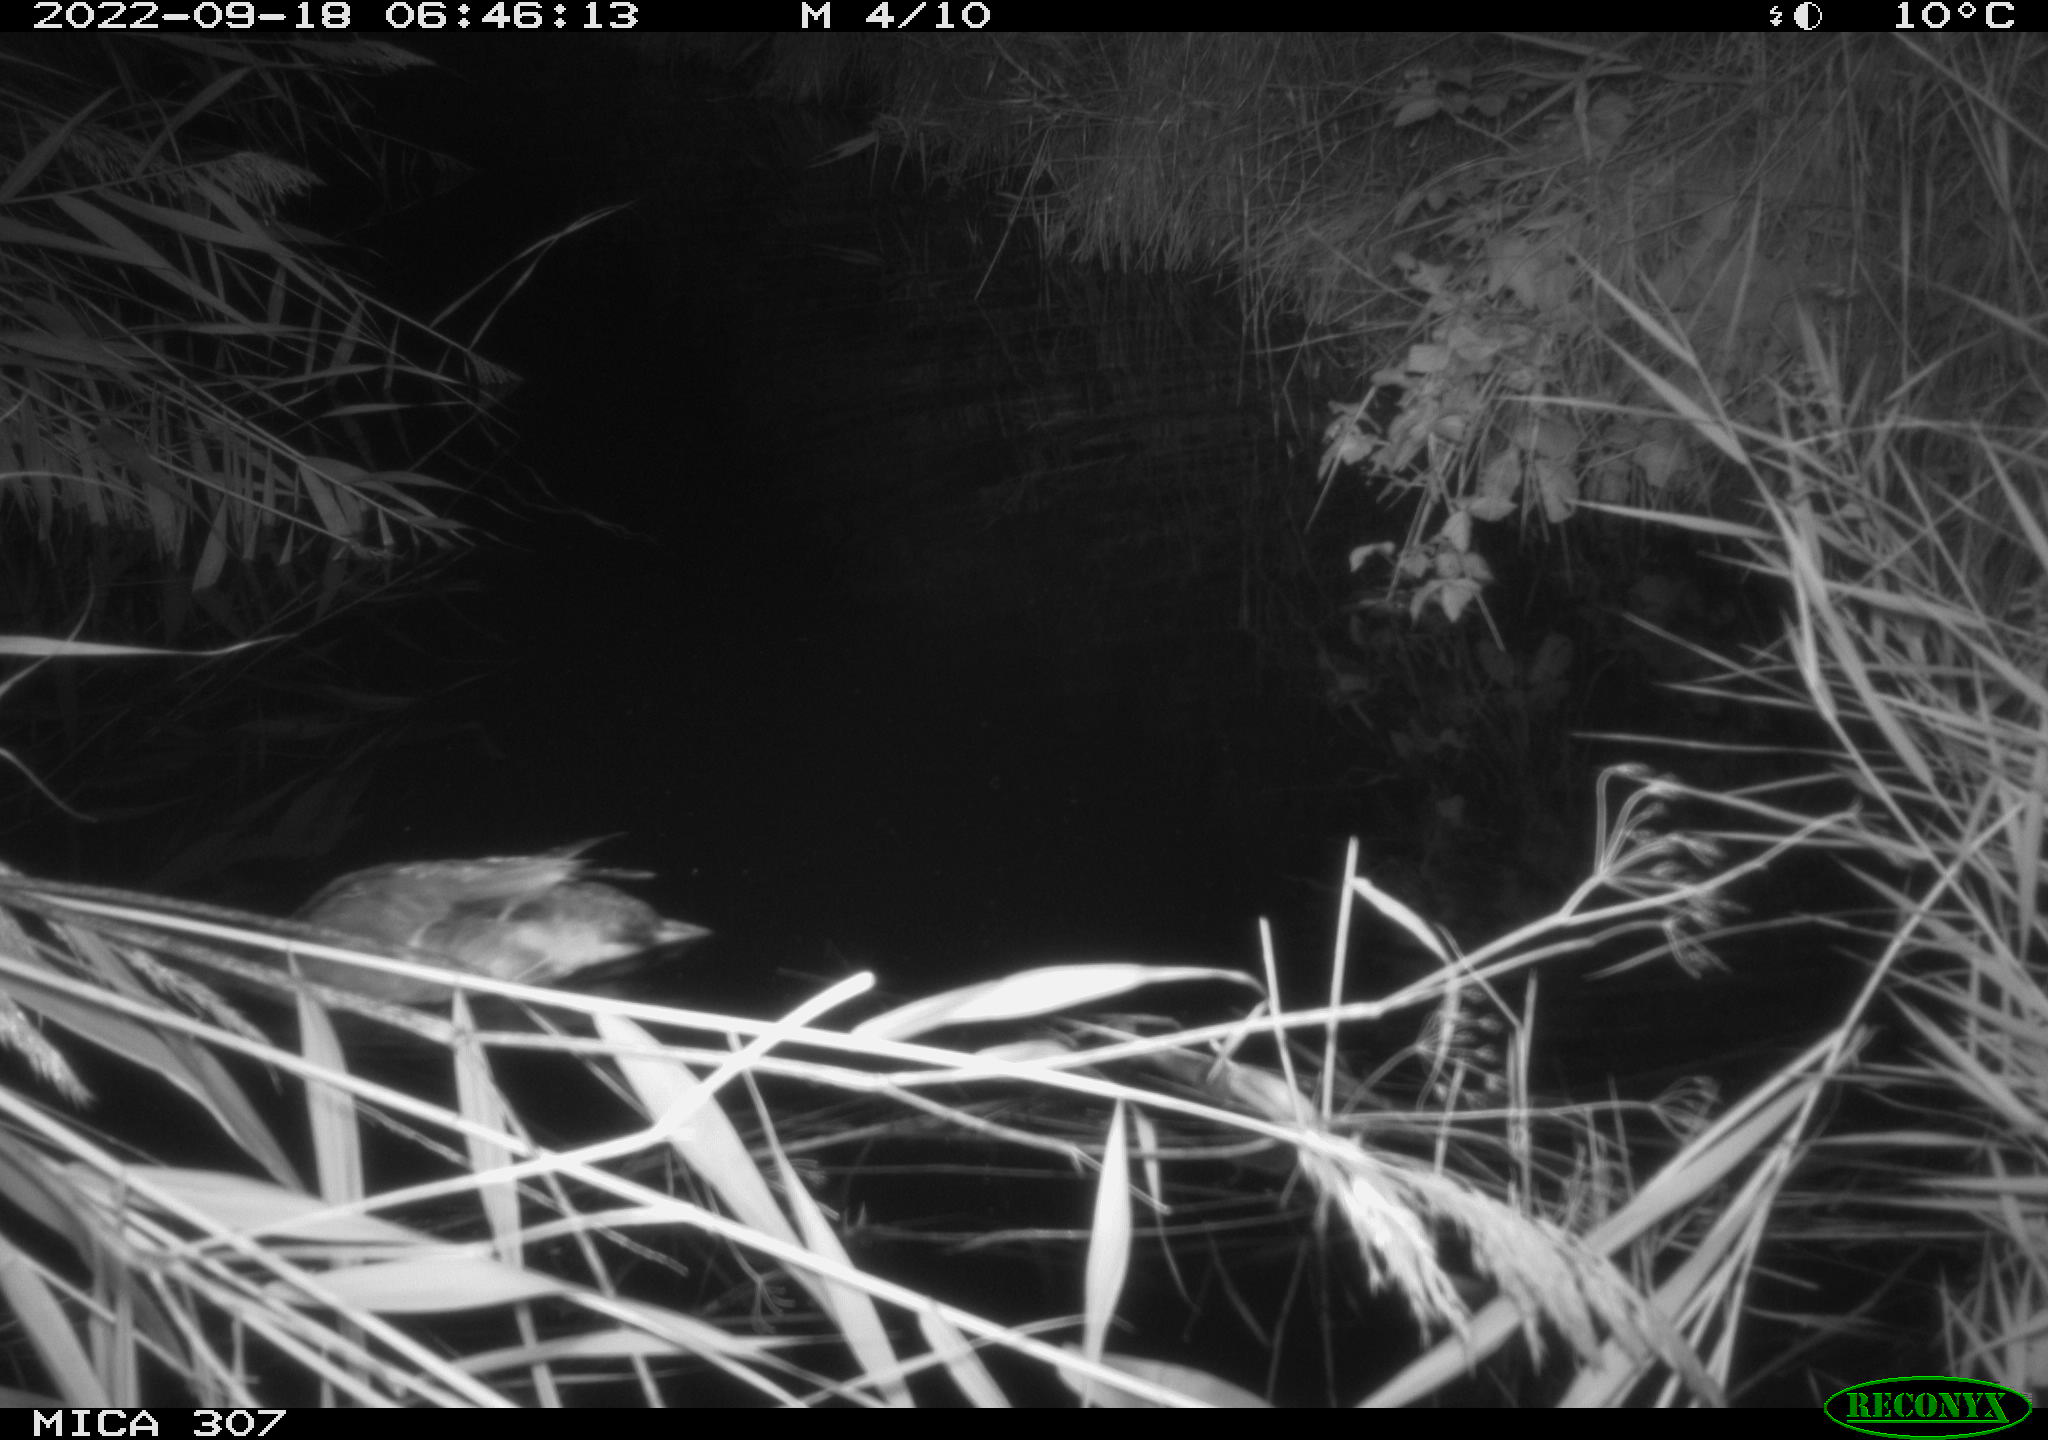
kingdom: Animalia
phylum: Chordata
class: Aves
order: Anseriformes
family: Anatidae
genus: Anas
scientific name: Anas
